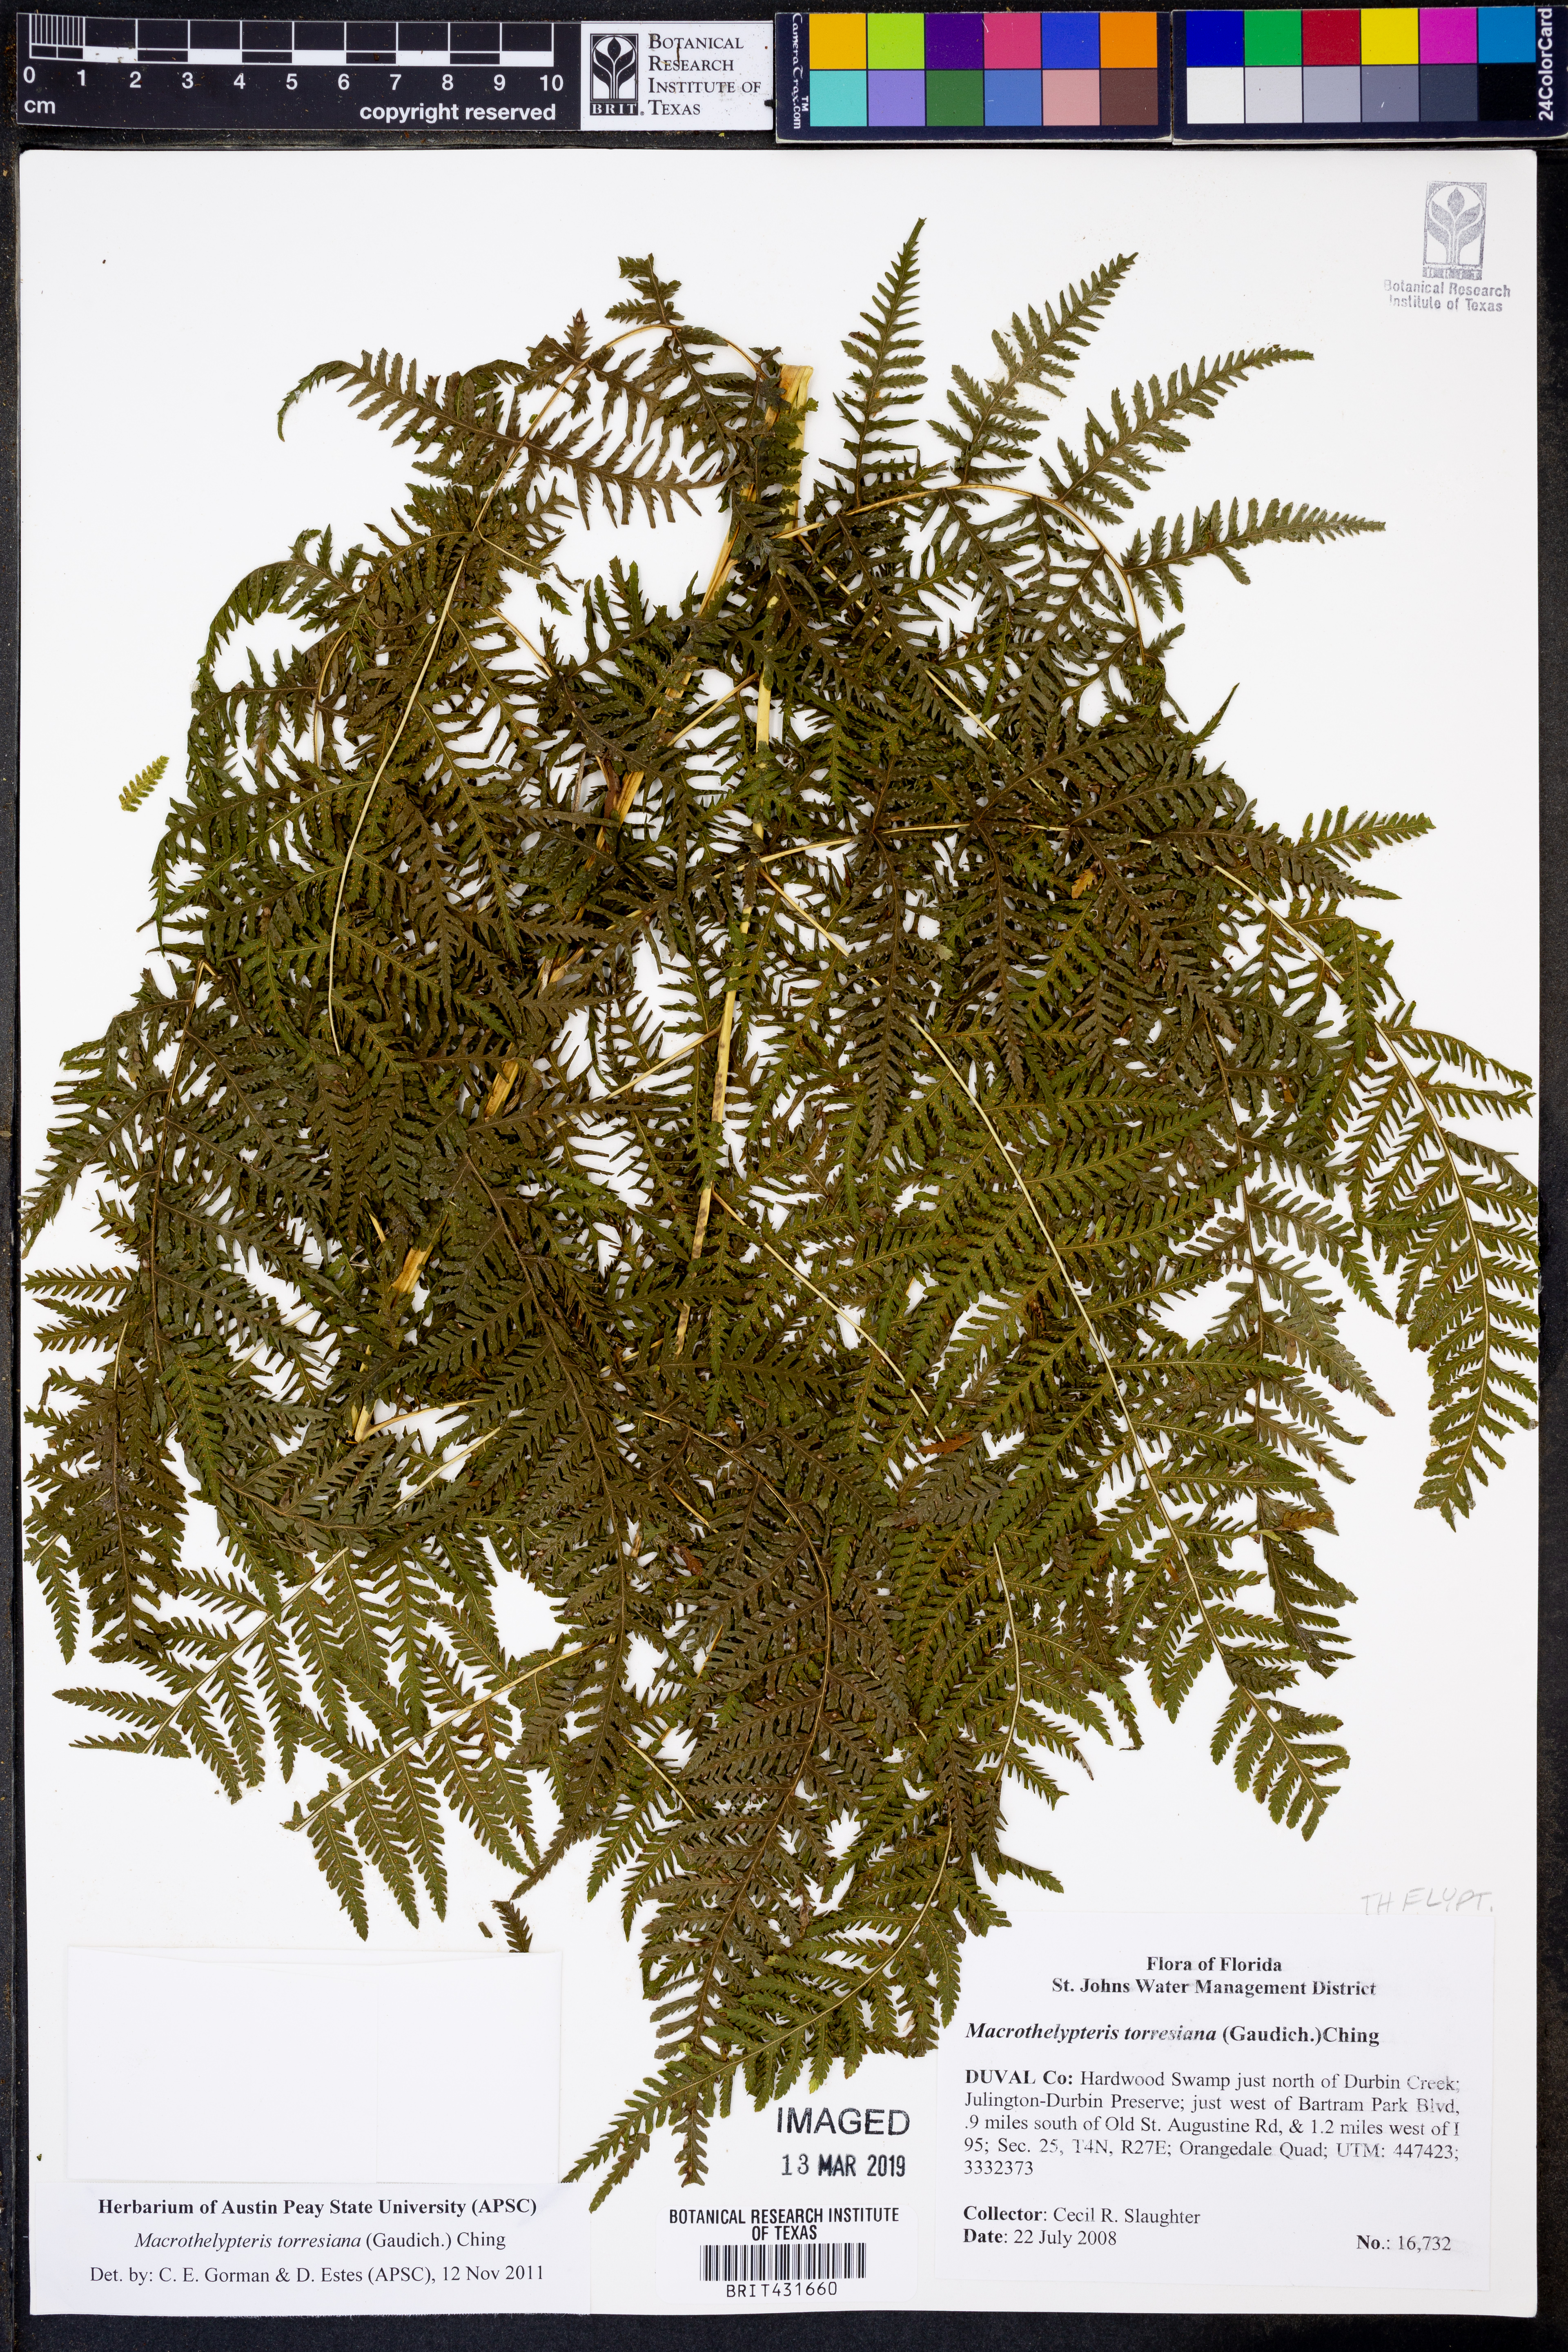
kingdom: Plantae
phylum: Tracheophyta
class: Polypodiopsida
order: Polypodiales
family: Thelypteridaceae
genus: Macrothelypteris
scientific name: Macrothelypteris torresiana
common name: Swordfern
